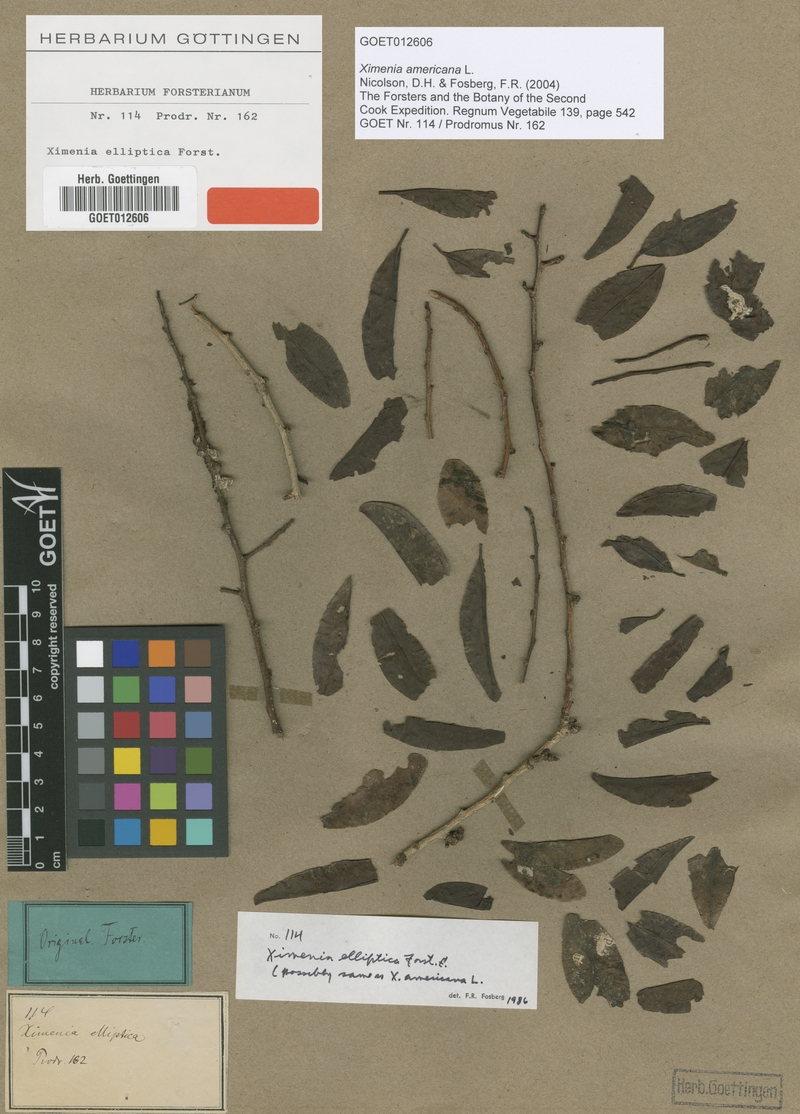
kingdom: Plantae
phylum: Tracheophyta
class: Magnoliopsida
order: Santalales
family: Ximeniaceae
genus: Ximenia
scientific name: Ximenia americana
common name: Tallowwood
